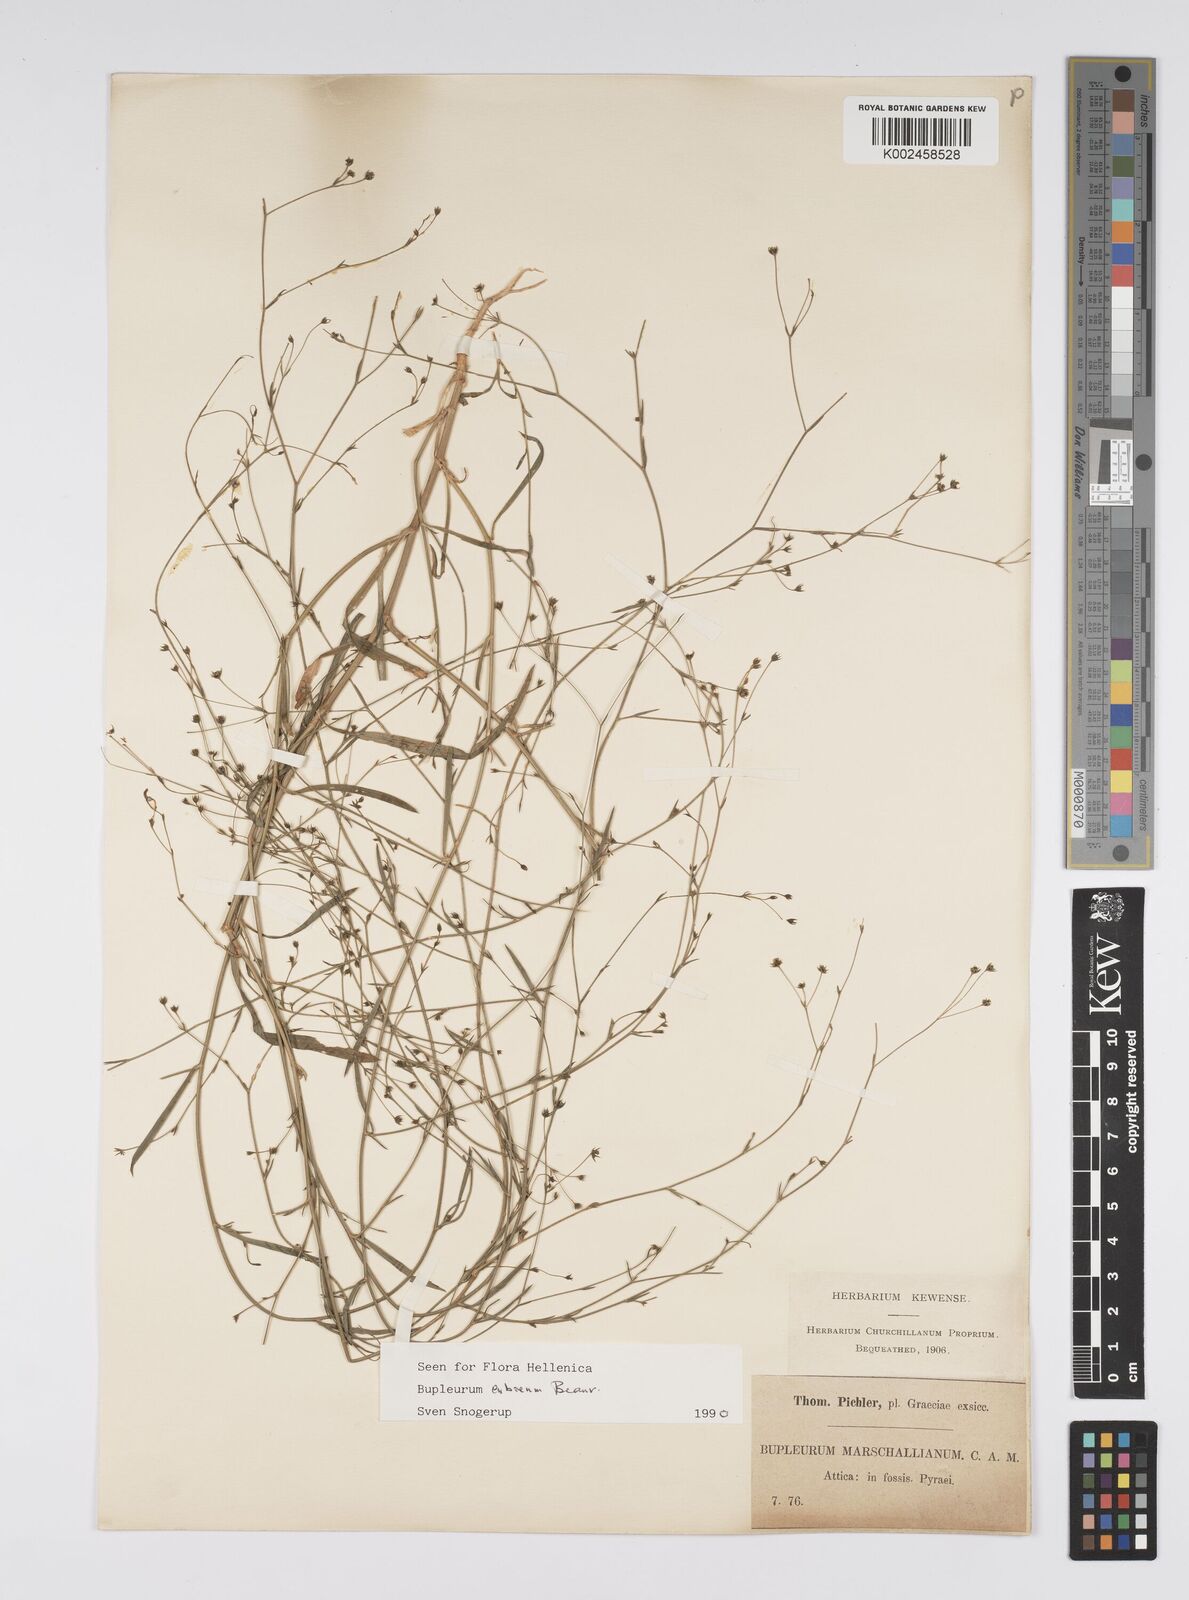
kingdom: Plantae
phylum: Tracheophyta
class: Magnoliopsida
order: Apiales
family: Apiaceae
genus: Bupleurum
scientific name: Bupleurum tenuissimum
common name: Slender hare's-ear
